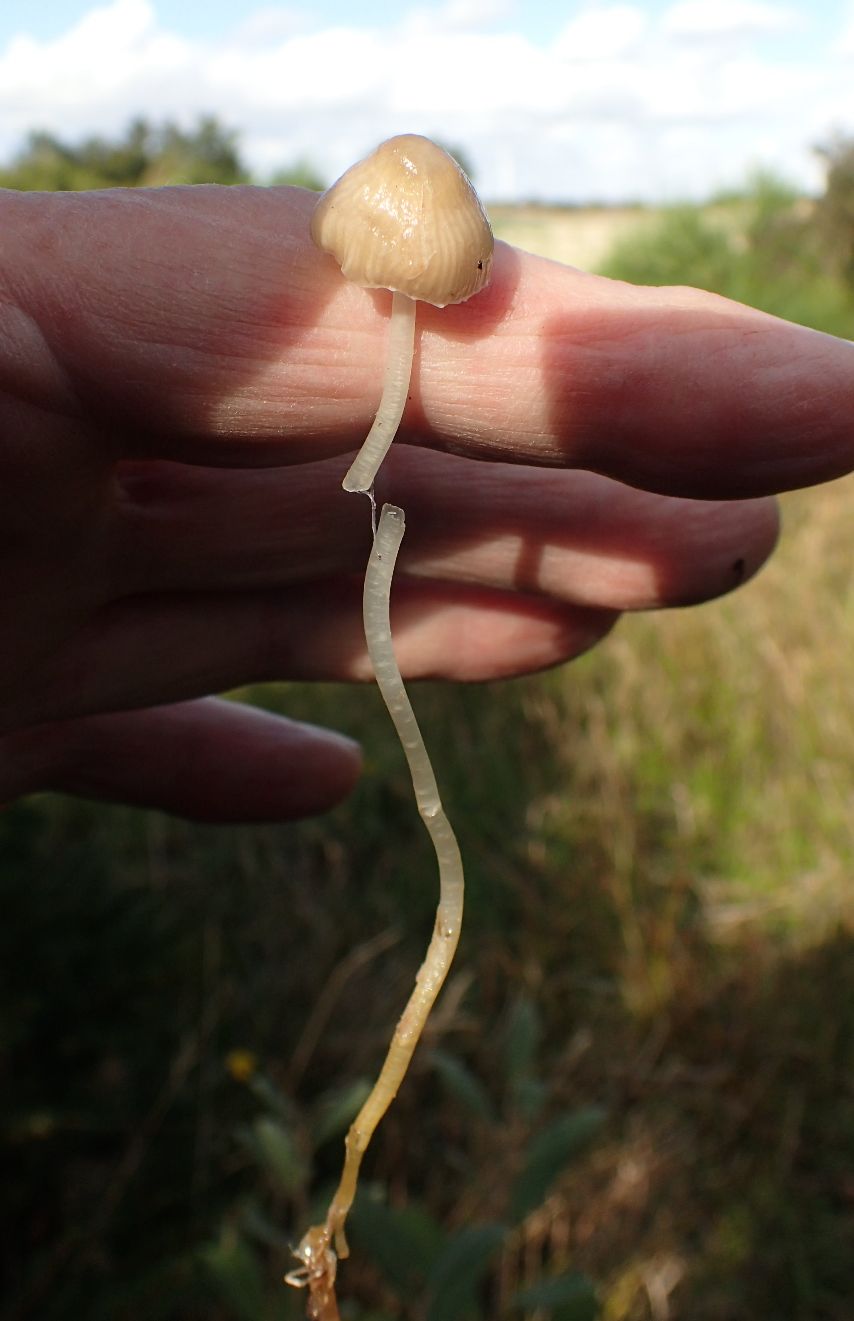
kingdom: Fungi
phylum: Basidiomycota
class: Agaricomycetes
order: Agaricales
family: Mycenaceae
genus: Mycena
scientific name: Mycena epipterygia
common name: gulstokket huesvamp
